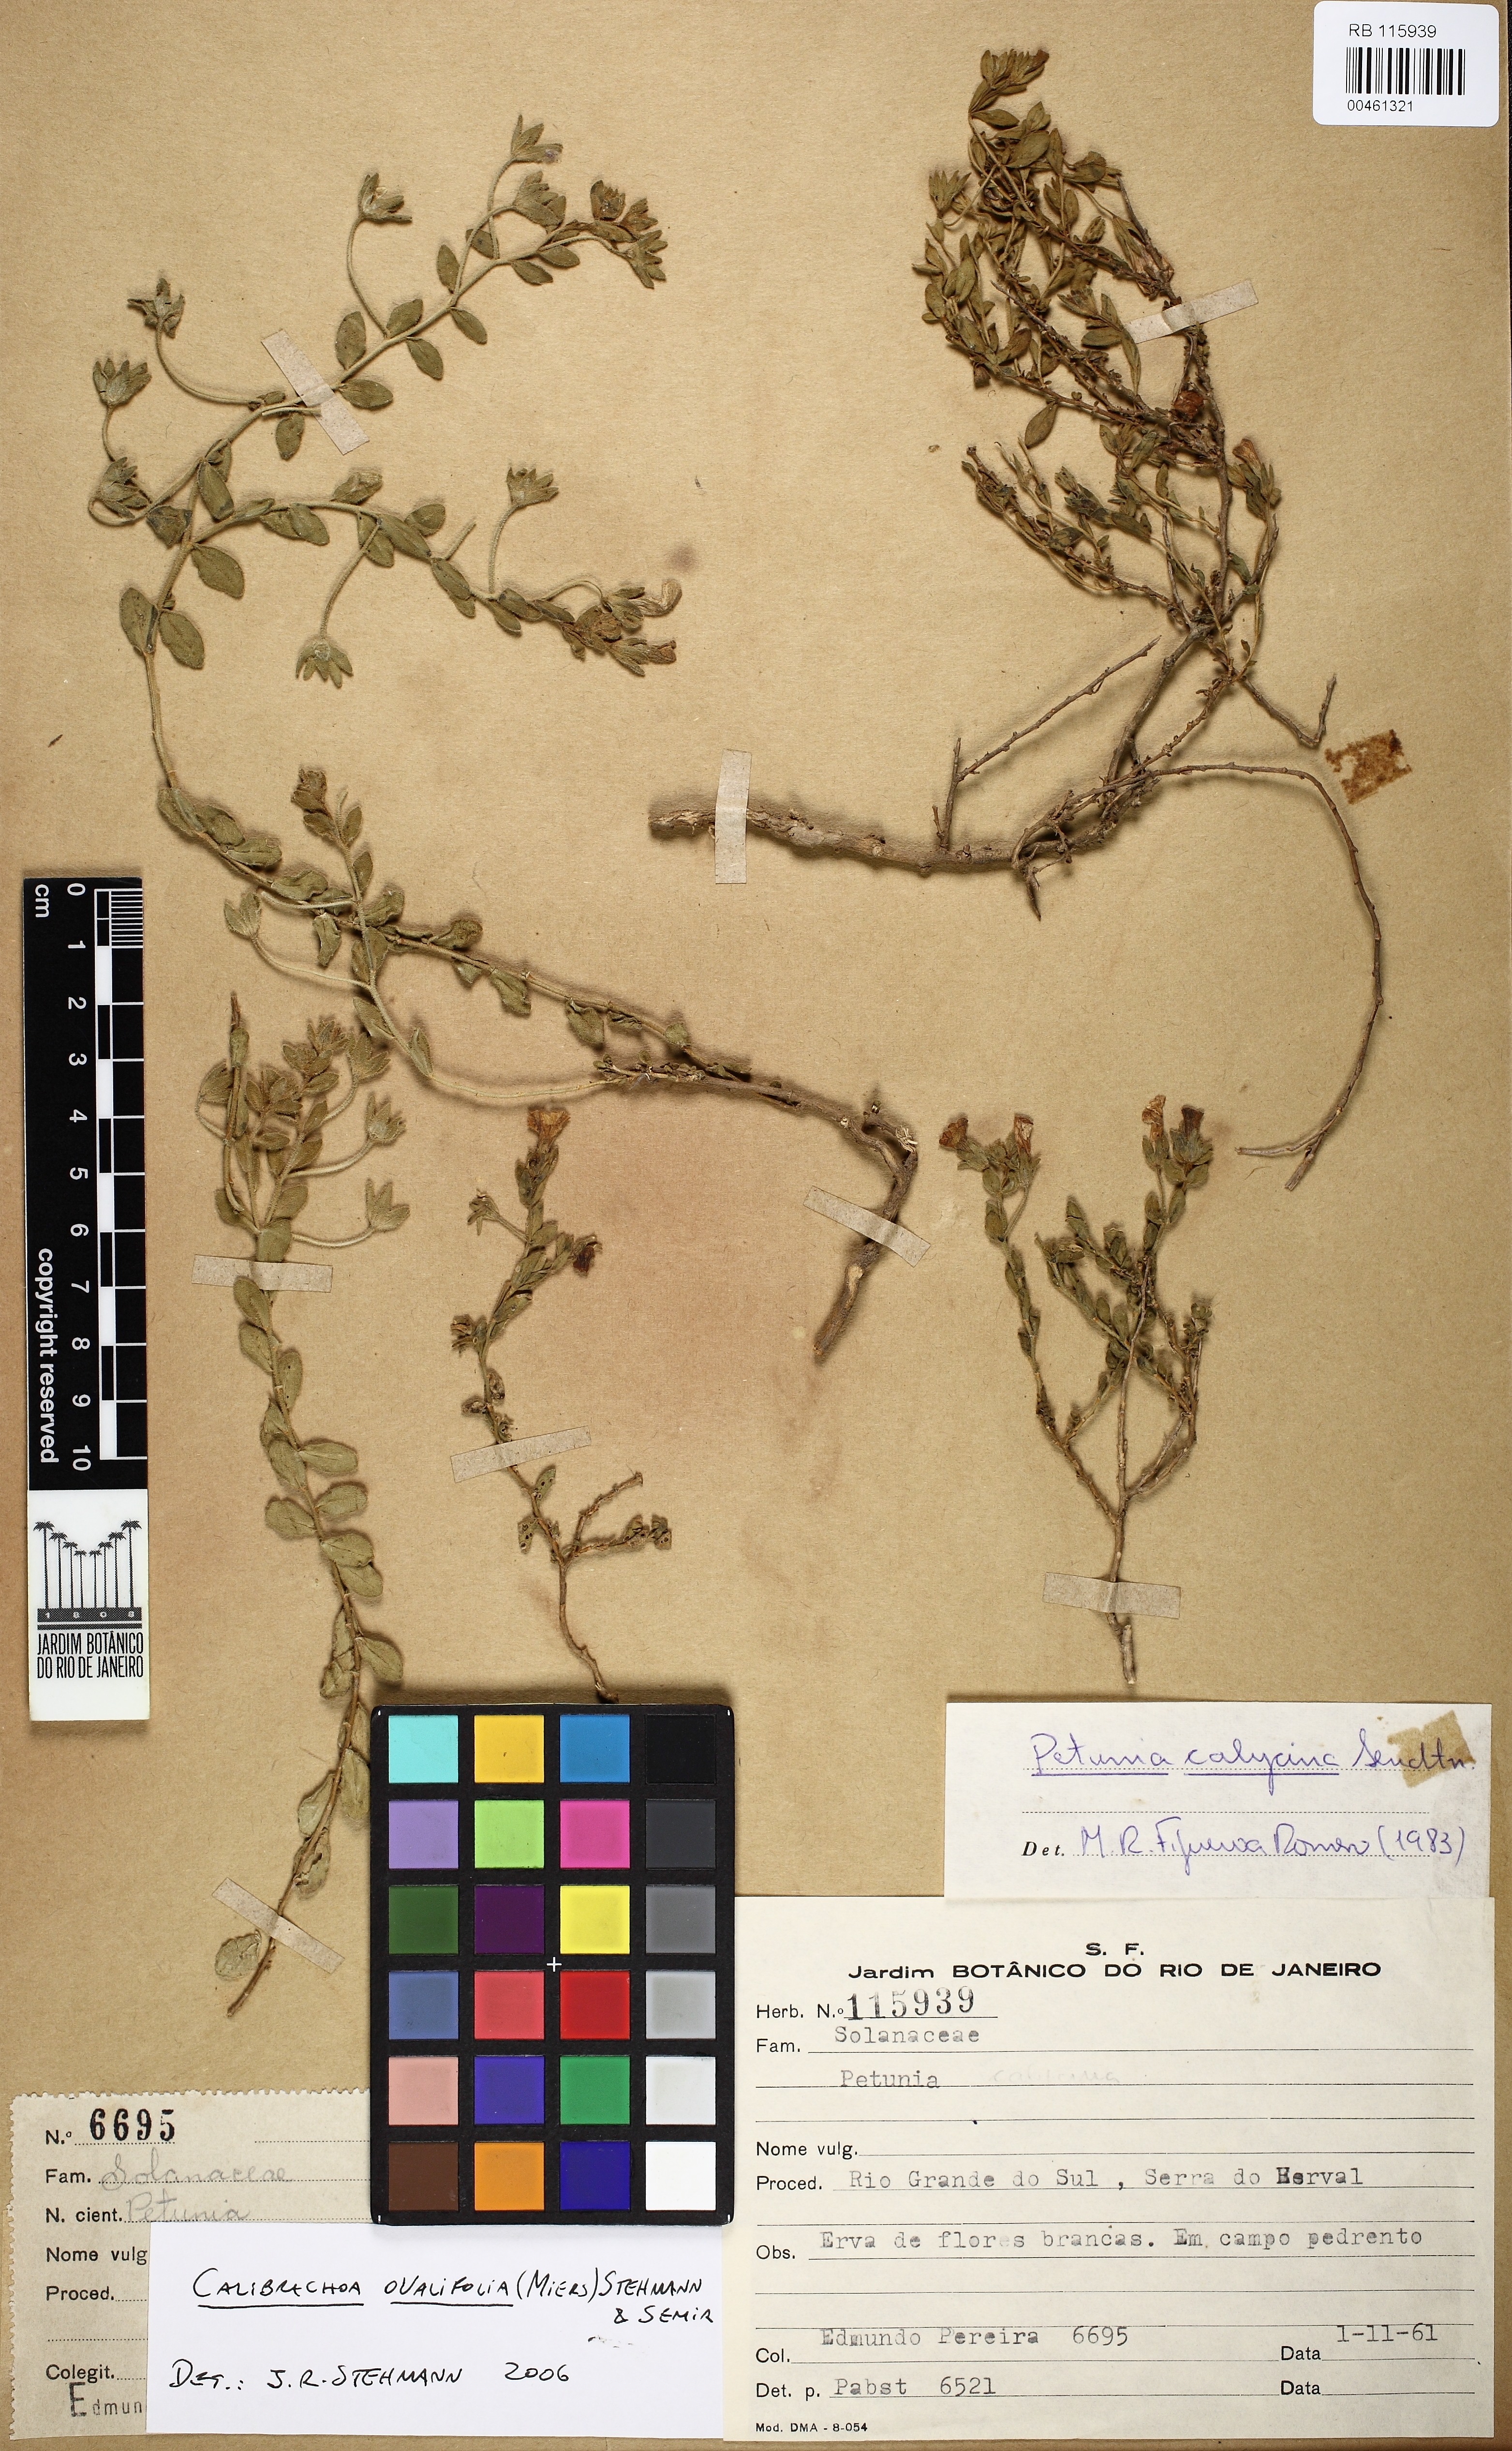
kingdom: Plantae
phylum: Tracheophyta
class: Magnoliopsida
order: Solanales
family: Solanaceae
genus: Calibrachoa
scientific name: Calibrachoa calycina
